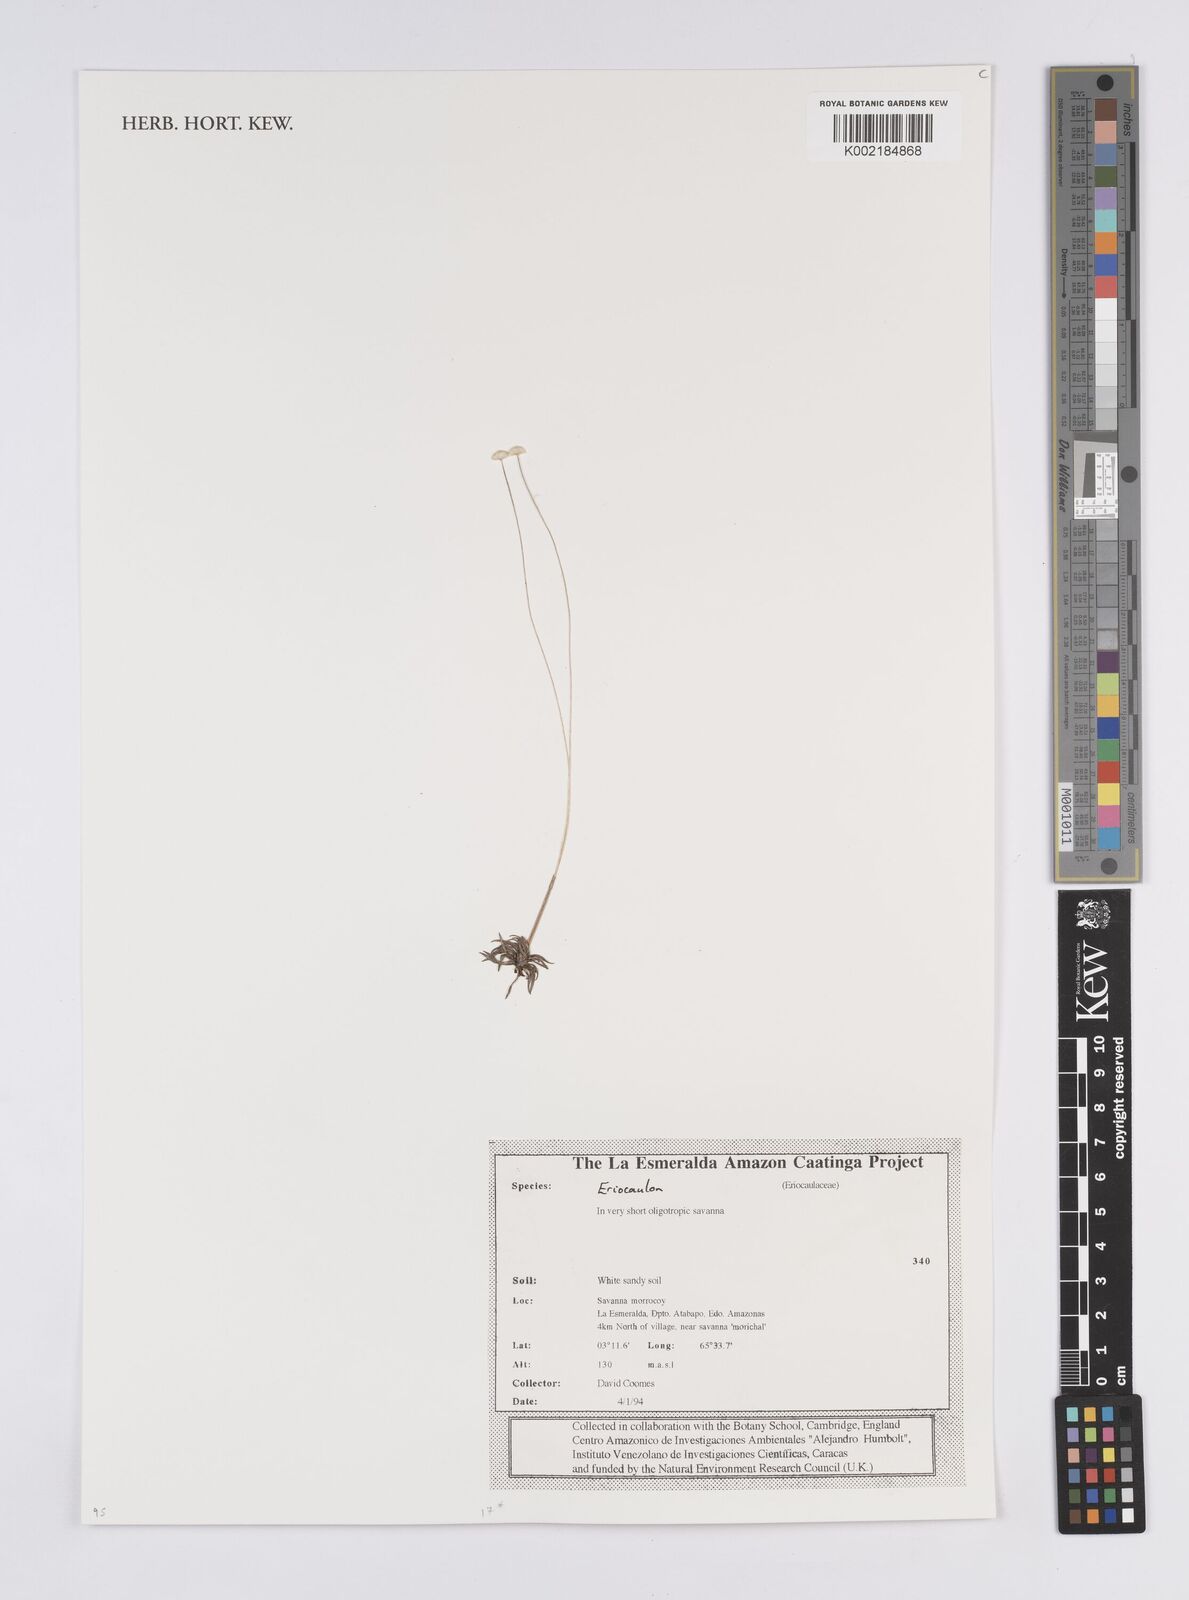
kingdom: Plantae
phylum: Tracheophyta
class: Liliopsida
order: Poales
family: Eriocaulaceae
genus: Eriocaulon
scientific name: Eriocaulon
